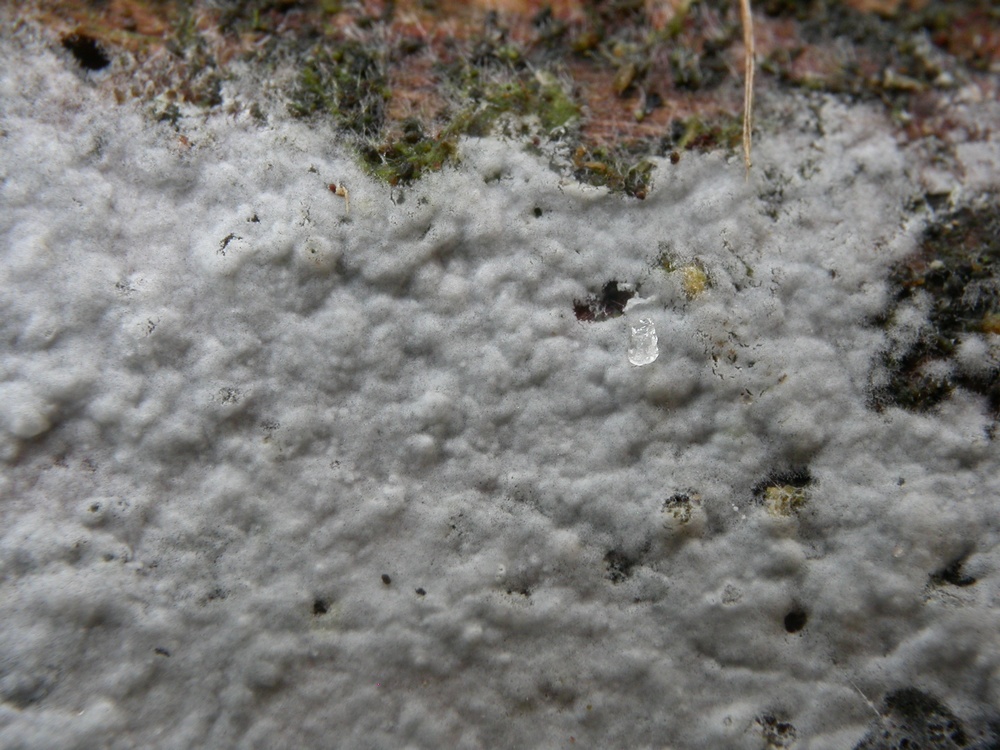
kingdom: Fungi
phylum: Basidiomycota
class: Agaricomycetes
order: Atheliales
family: Atheliaceae
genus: Athelia
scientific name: Athelia decipiens
